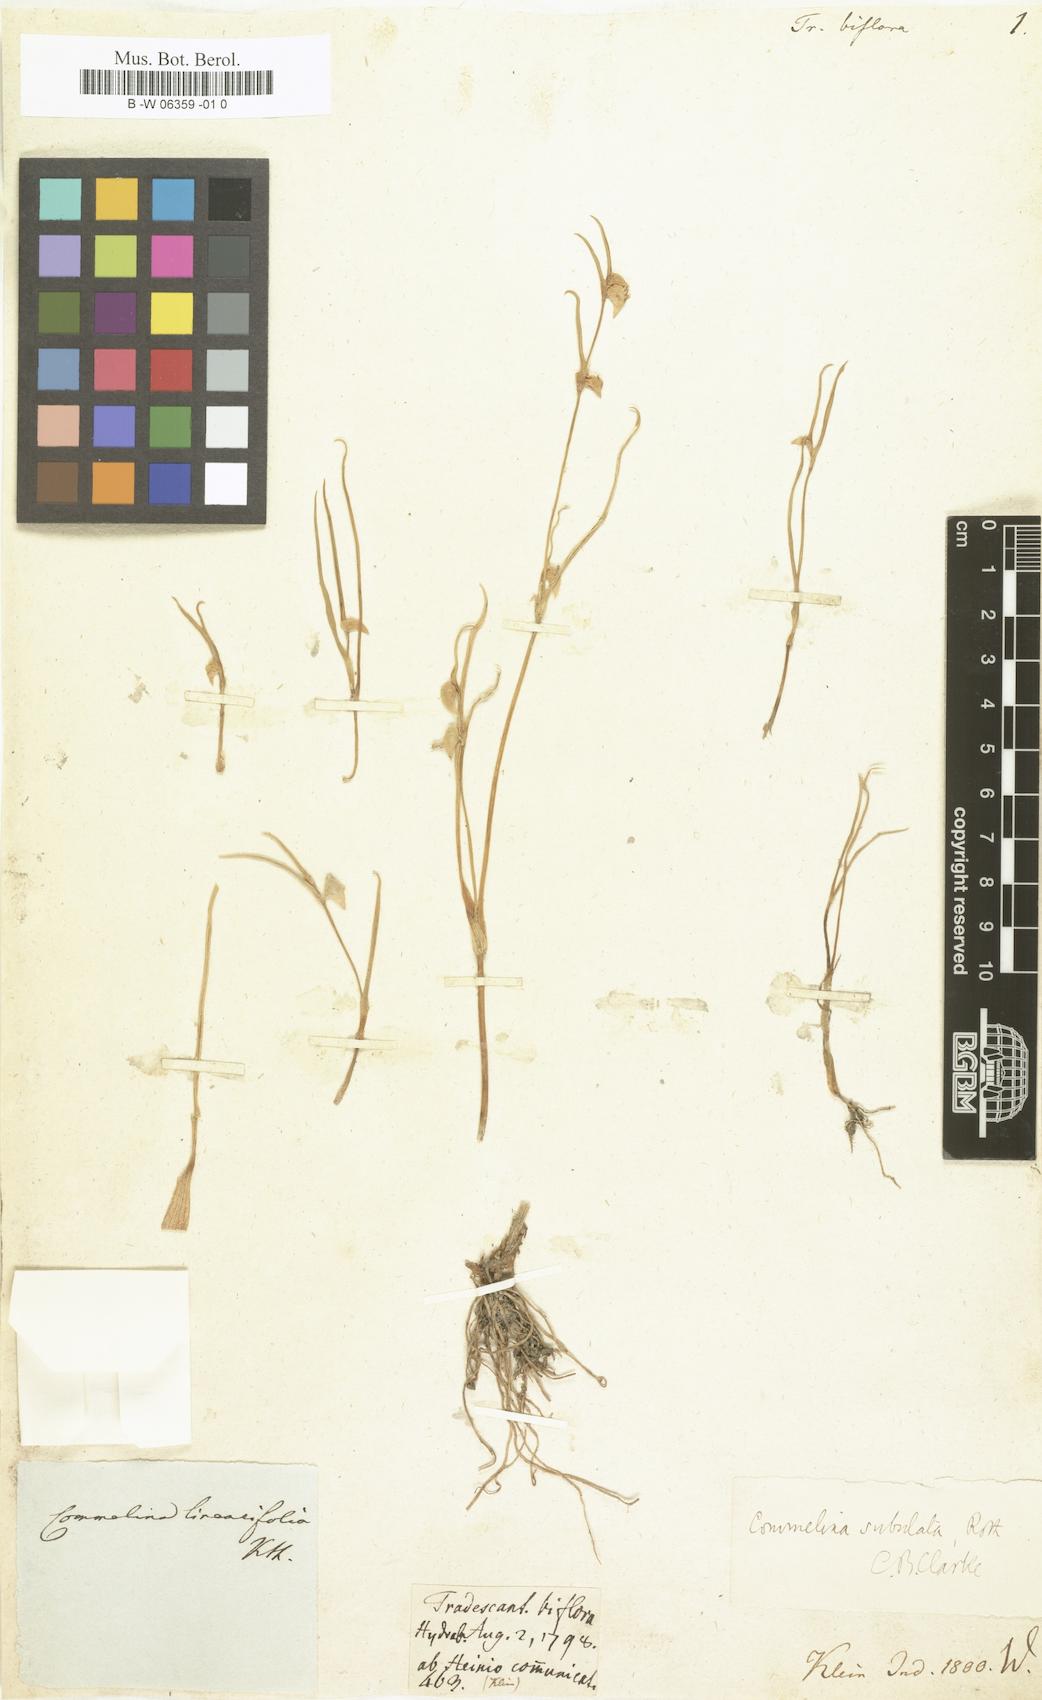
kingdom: Plantae
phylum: Tracheophyta
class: Liliopsida
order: Commelinales
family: Commelinaceae
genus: Commelina
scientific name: Commelina subulata
